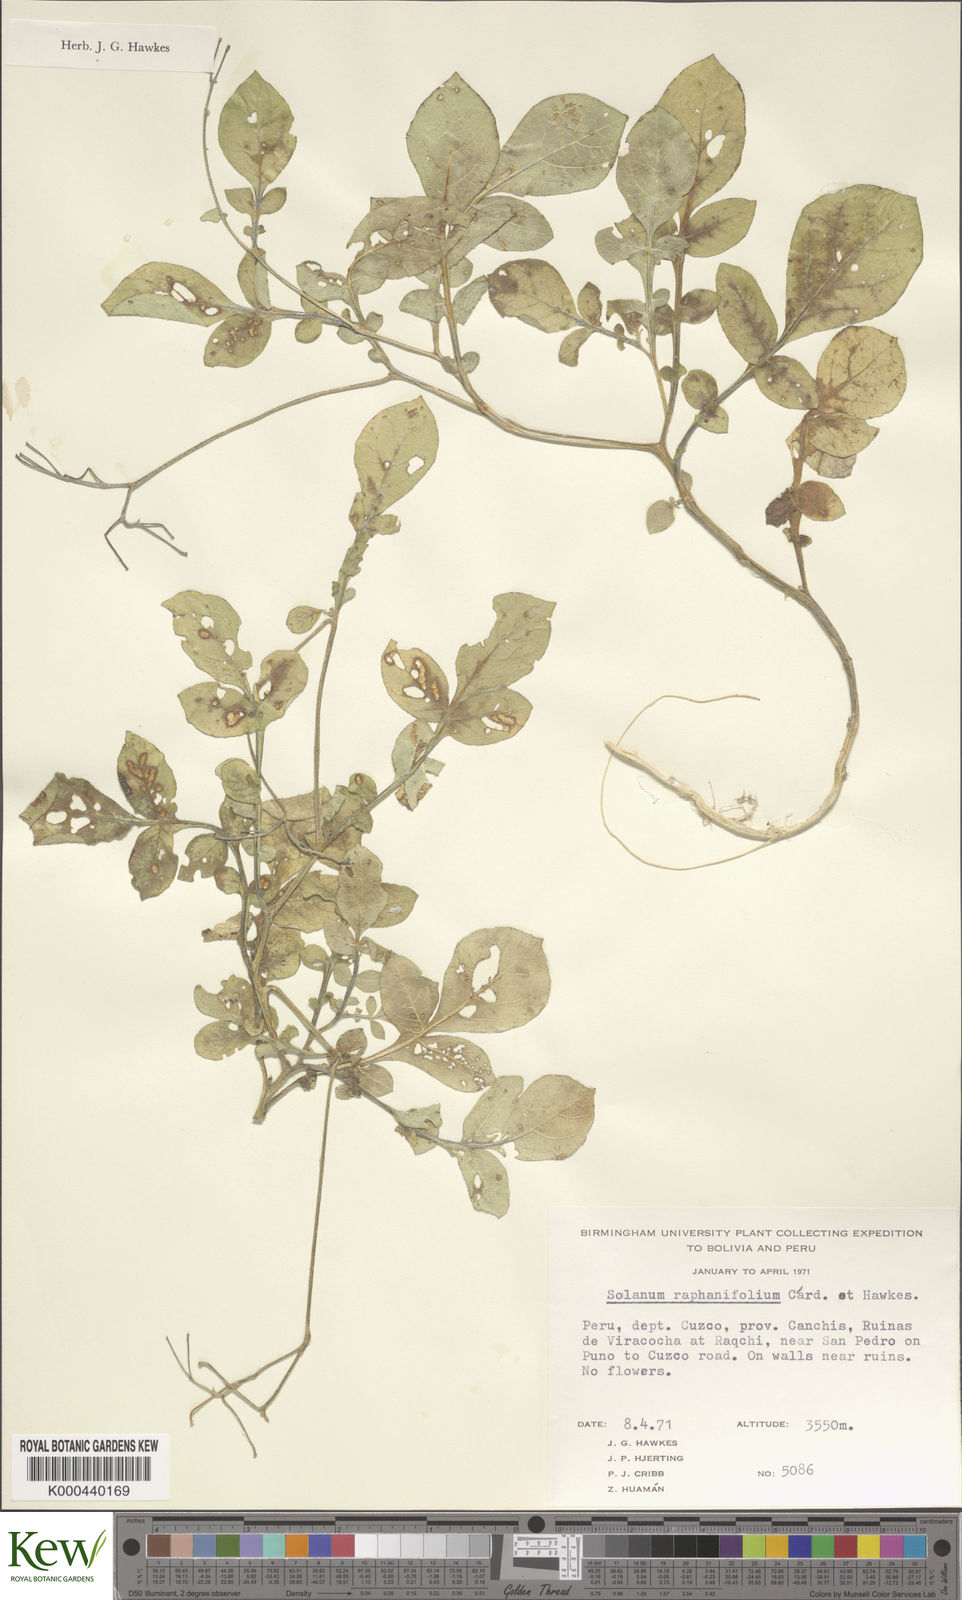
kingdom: Plantae
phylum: Tracheophyta
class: Magnoliopsida
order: Solanales
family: Solanaceae
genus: Solanum
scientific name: Solanum raphanifolium
